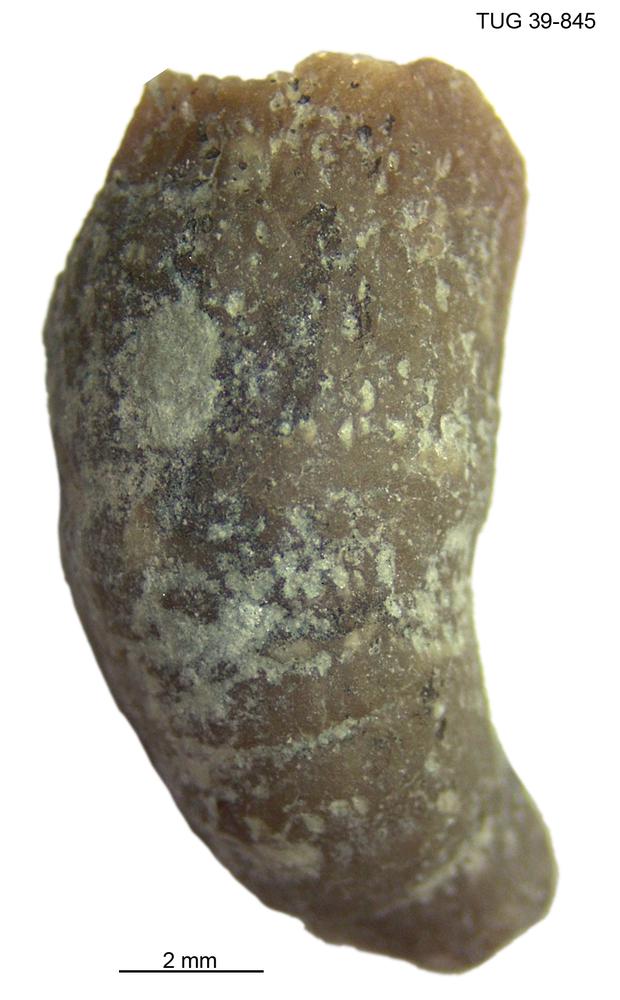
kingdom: Animalia
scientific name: Animalia
